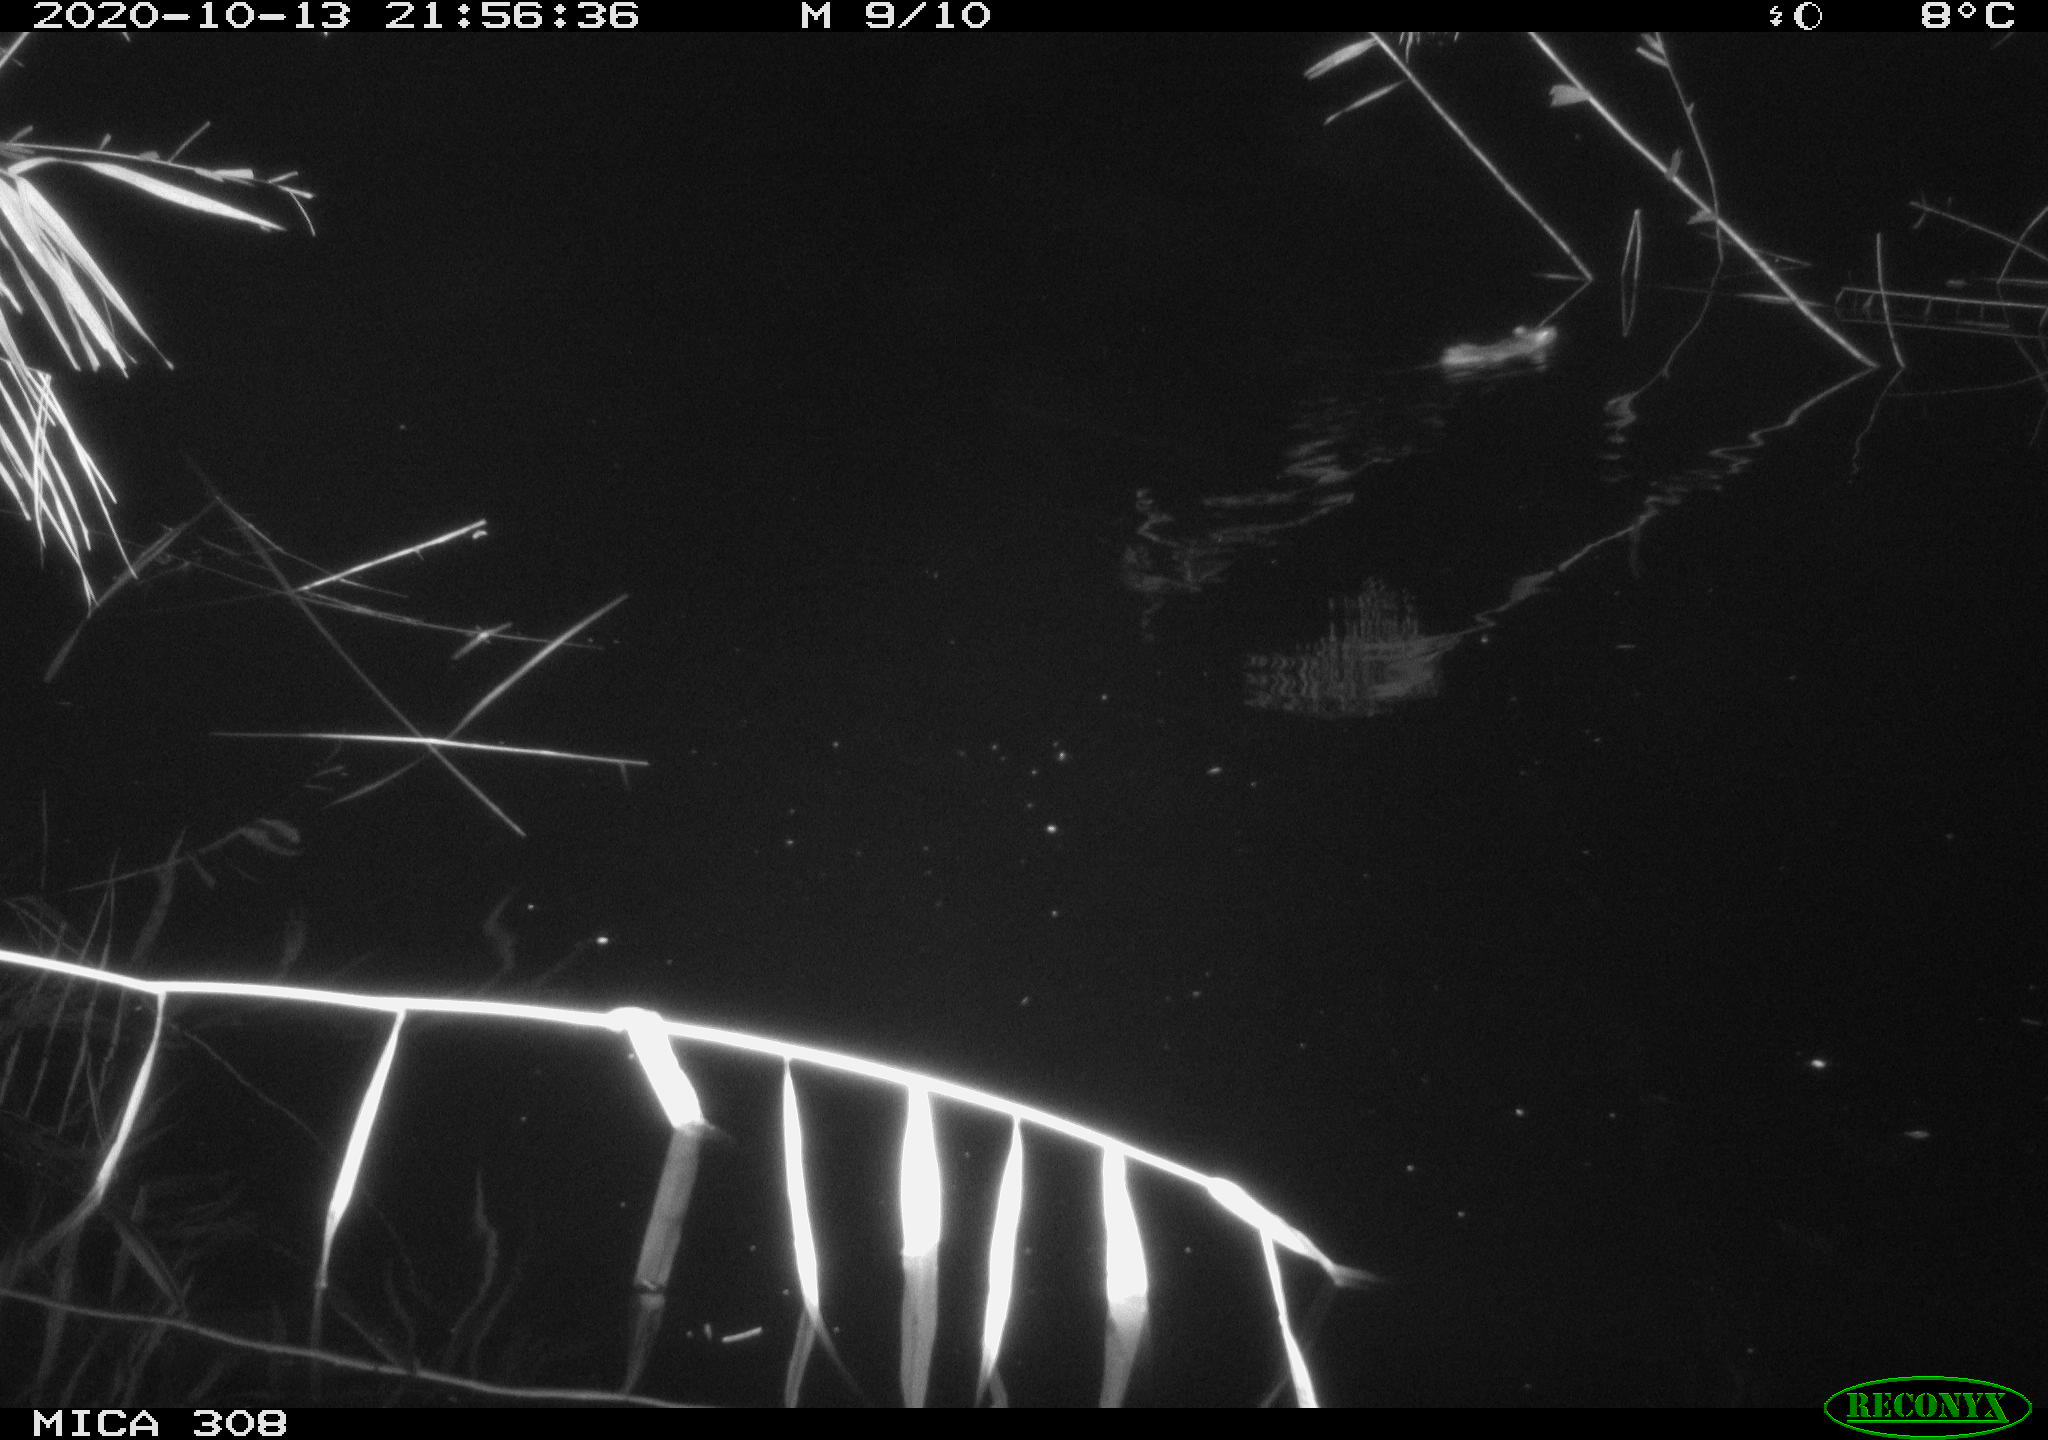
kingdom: Animalia
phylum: Chordata
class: Mammalia
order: Rodentia
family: Muridae
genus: Rattus
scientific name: Rattus norvegicus
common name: Brown rat
